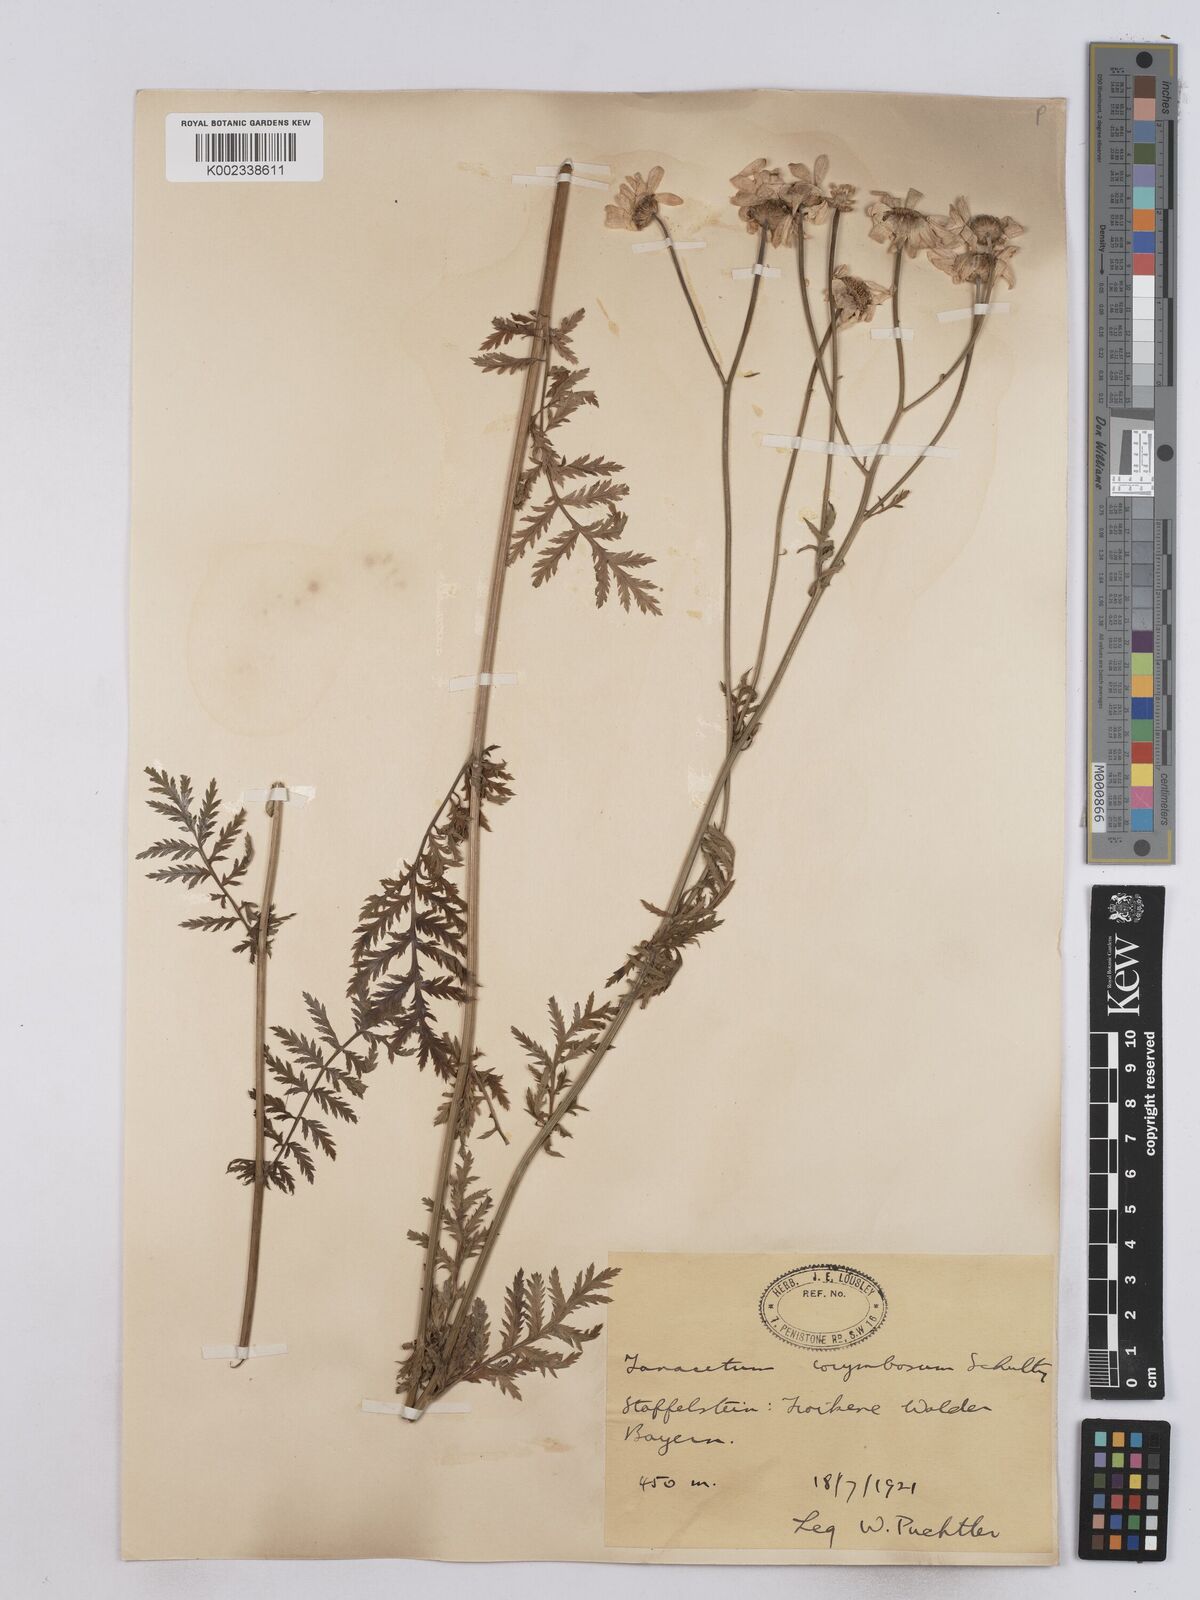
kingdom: Plantae
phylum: Tracheophyta
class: Magnoliopsida
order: Asterales
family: Asteraceae
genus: Tanacetum
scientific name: Tanacetum corymbosum
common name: Scentless feverfew
